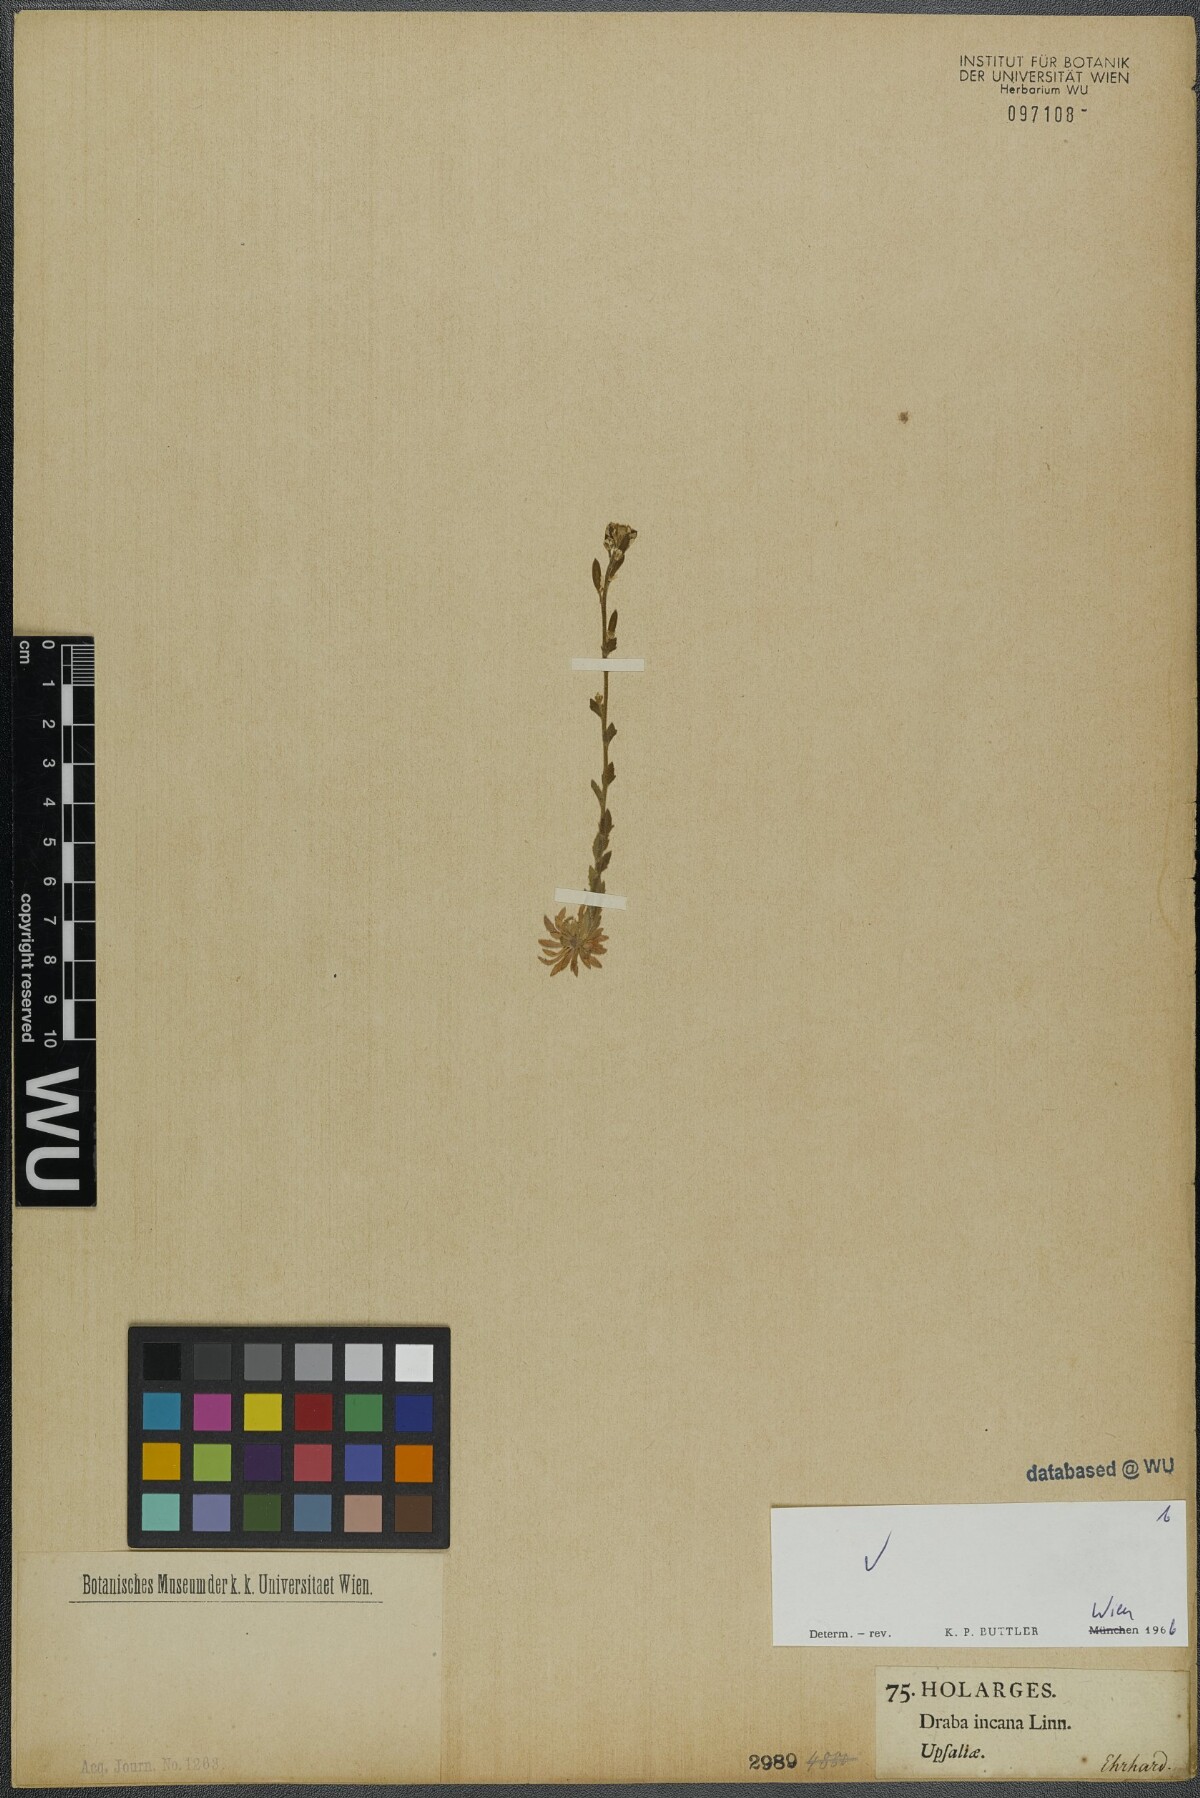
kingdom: Plantae
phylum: Tracheophyta
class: Magnoliopsida
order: Brassicales
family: Brassicaceae
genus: Draba
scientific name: Draba incana
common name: Hoary whitlow-grass
